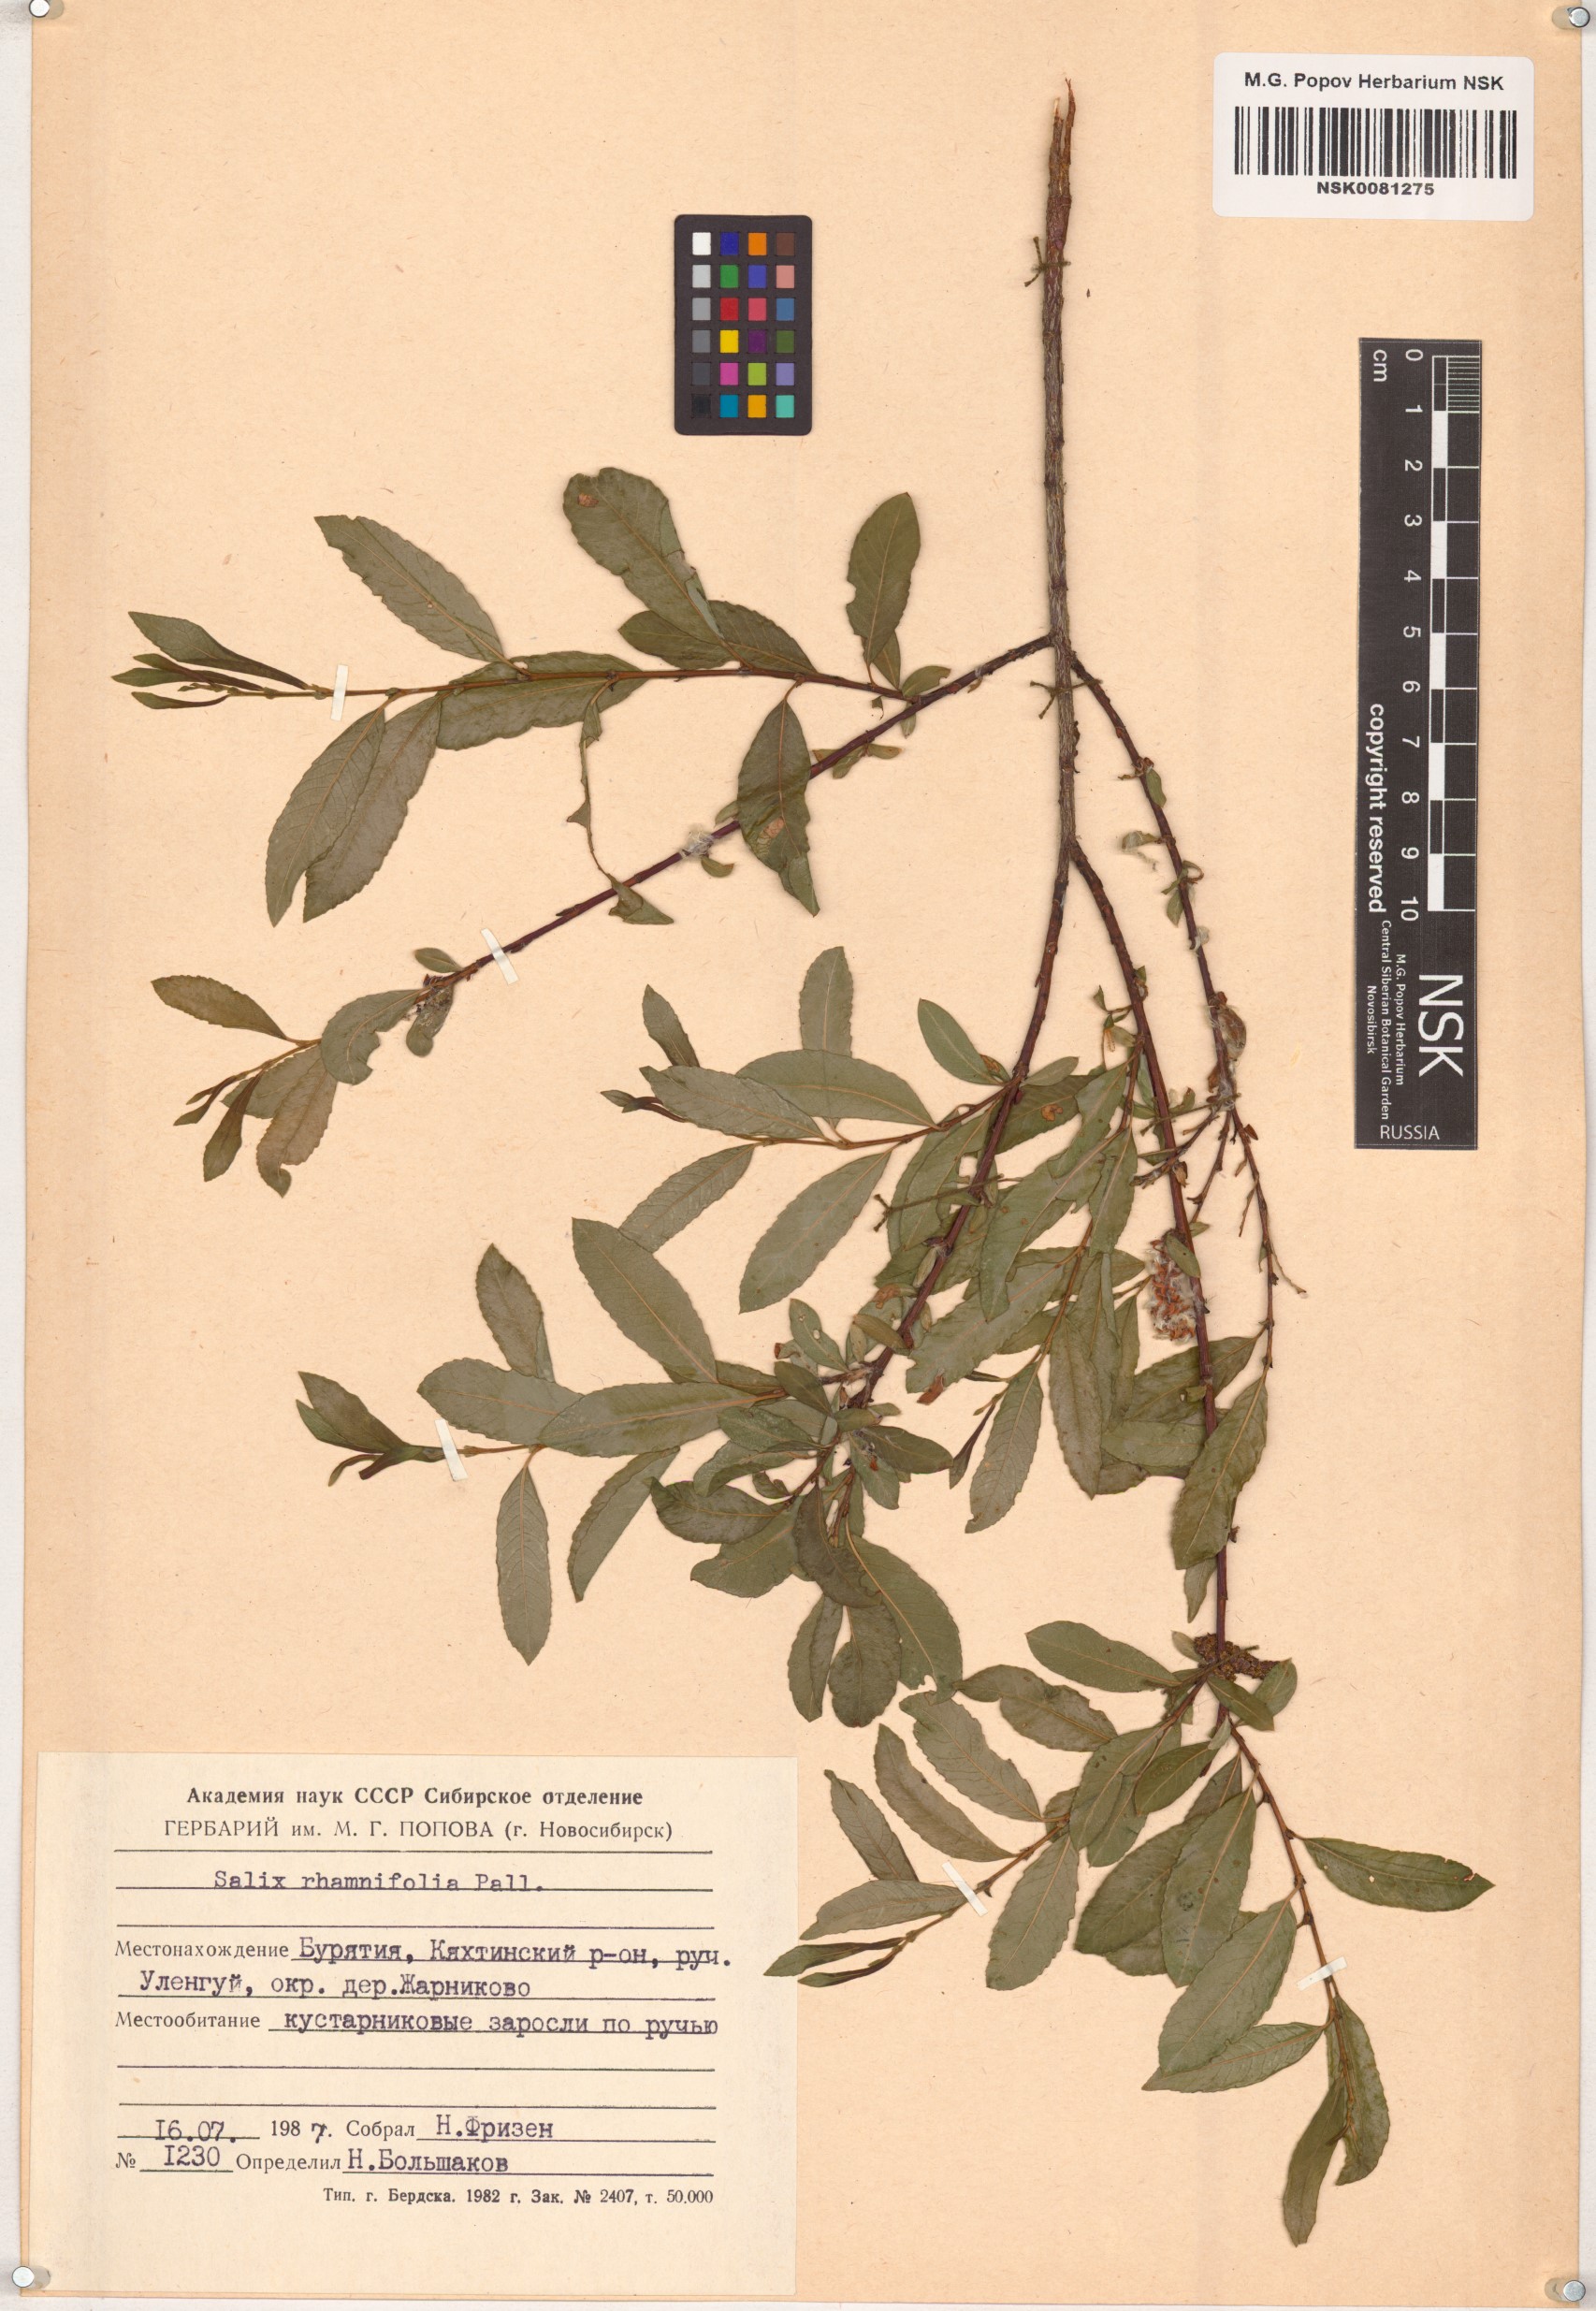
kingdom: Plantae
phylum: Tracheophyta
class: Magnoliopsida
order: Malpighiales
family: Salicaceae
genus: Salix
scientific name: Salix rhamnifolia
